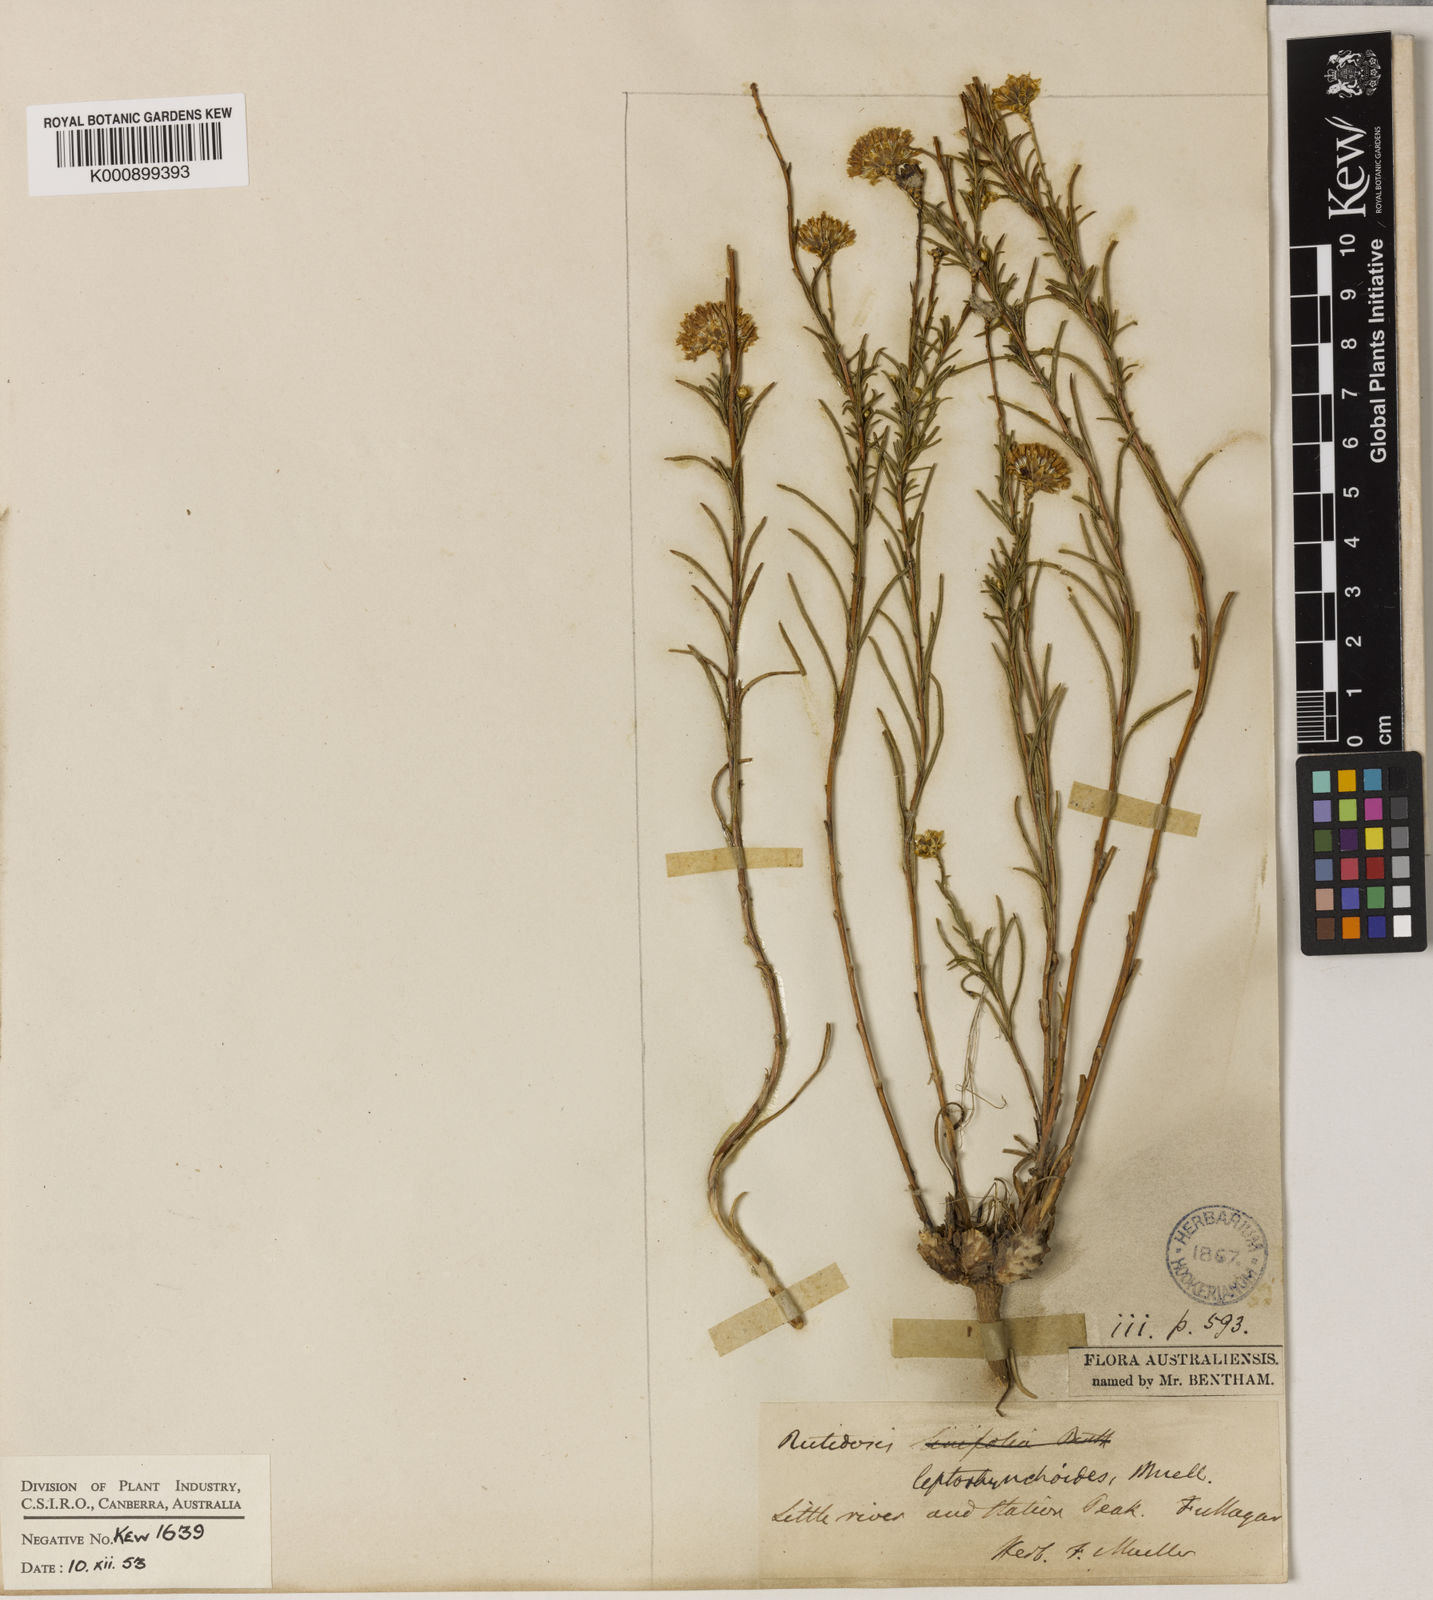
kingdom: Plantae
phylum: Tracheophyta
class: Magnoliopsida
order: Asterales
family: Asteraceae
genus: Rutidosis
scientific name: Rutidosis leptorrhynchoides
